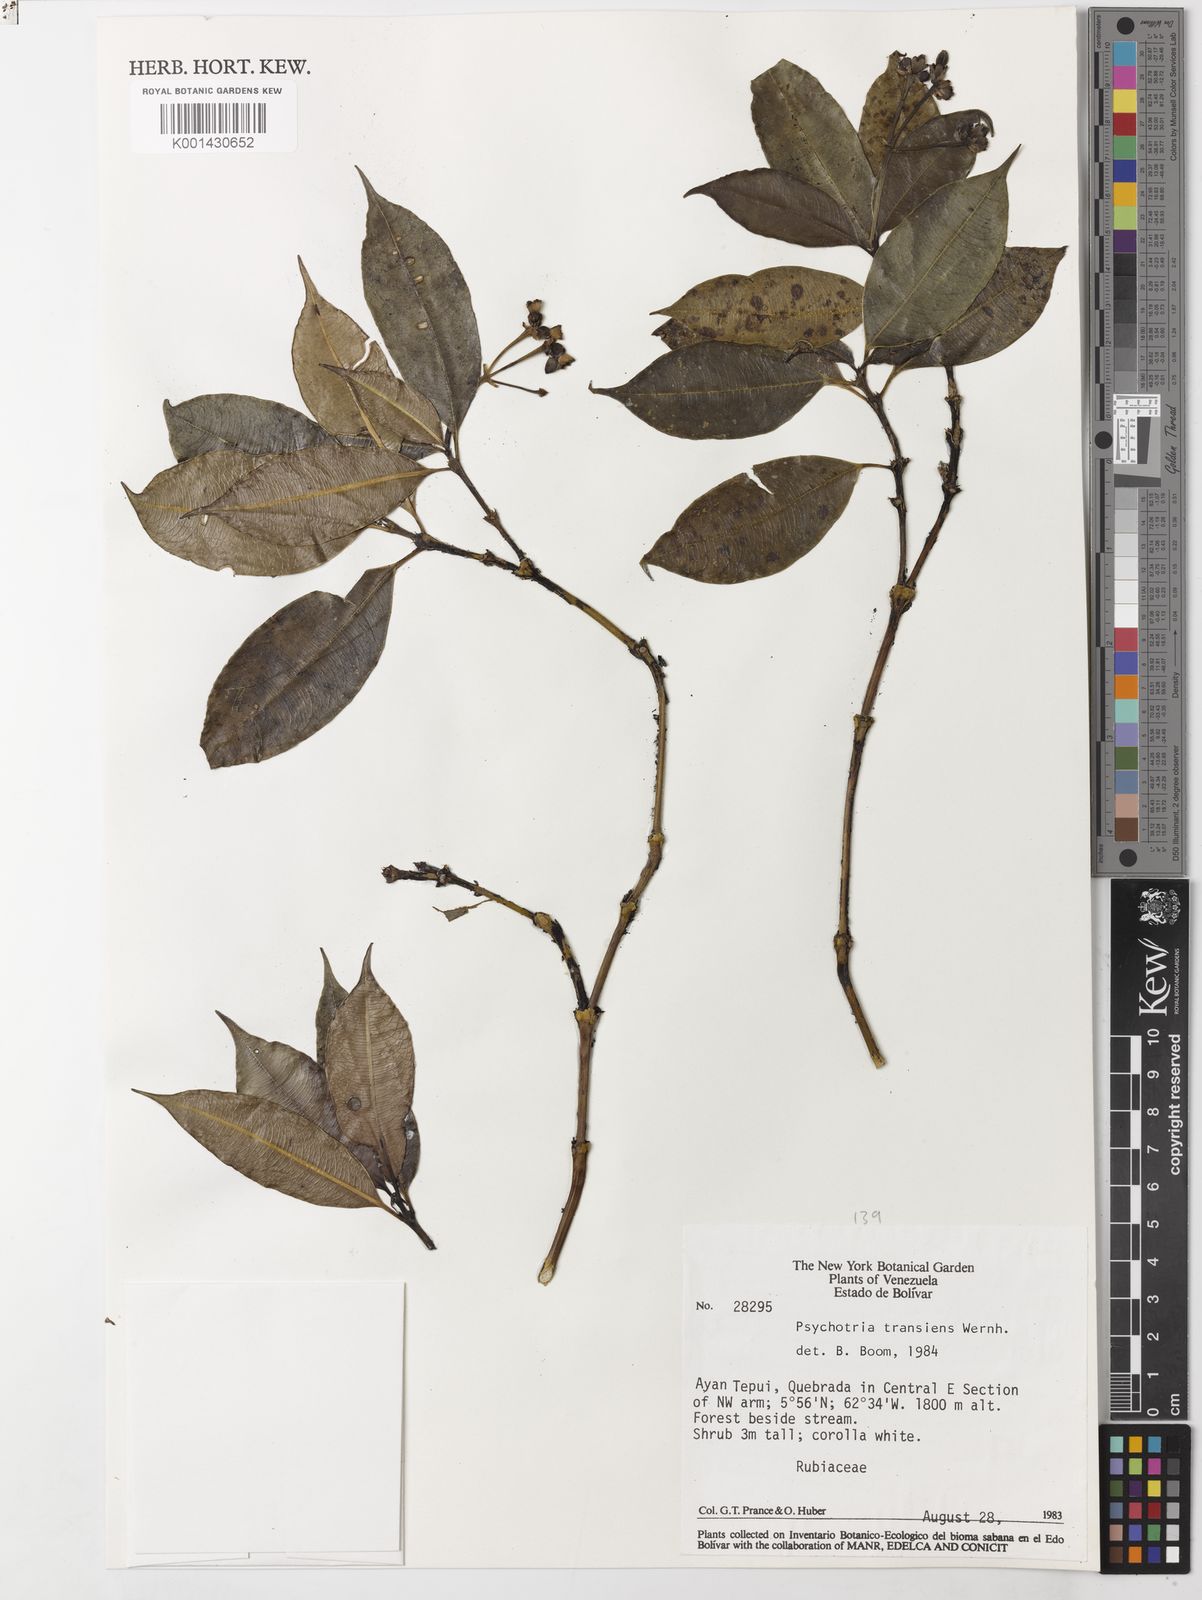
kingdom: Plantae
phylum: Tracheophyta
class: Magnoliopsida
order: Gentianales
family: Rubiaceae
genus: Palicourea
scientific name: Palicourea ernestii
